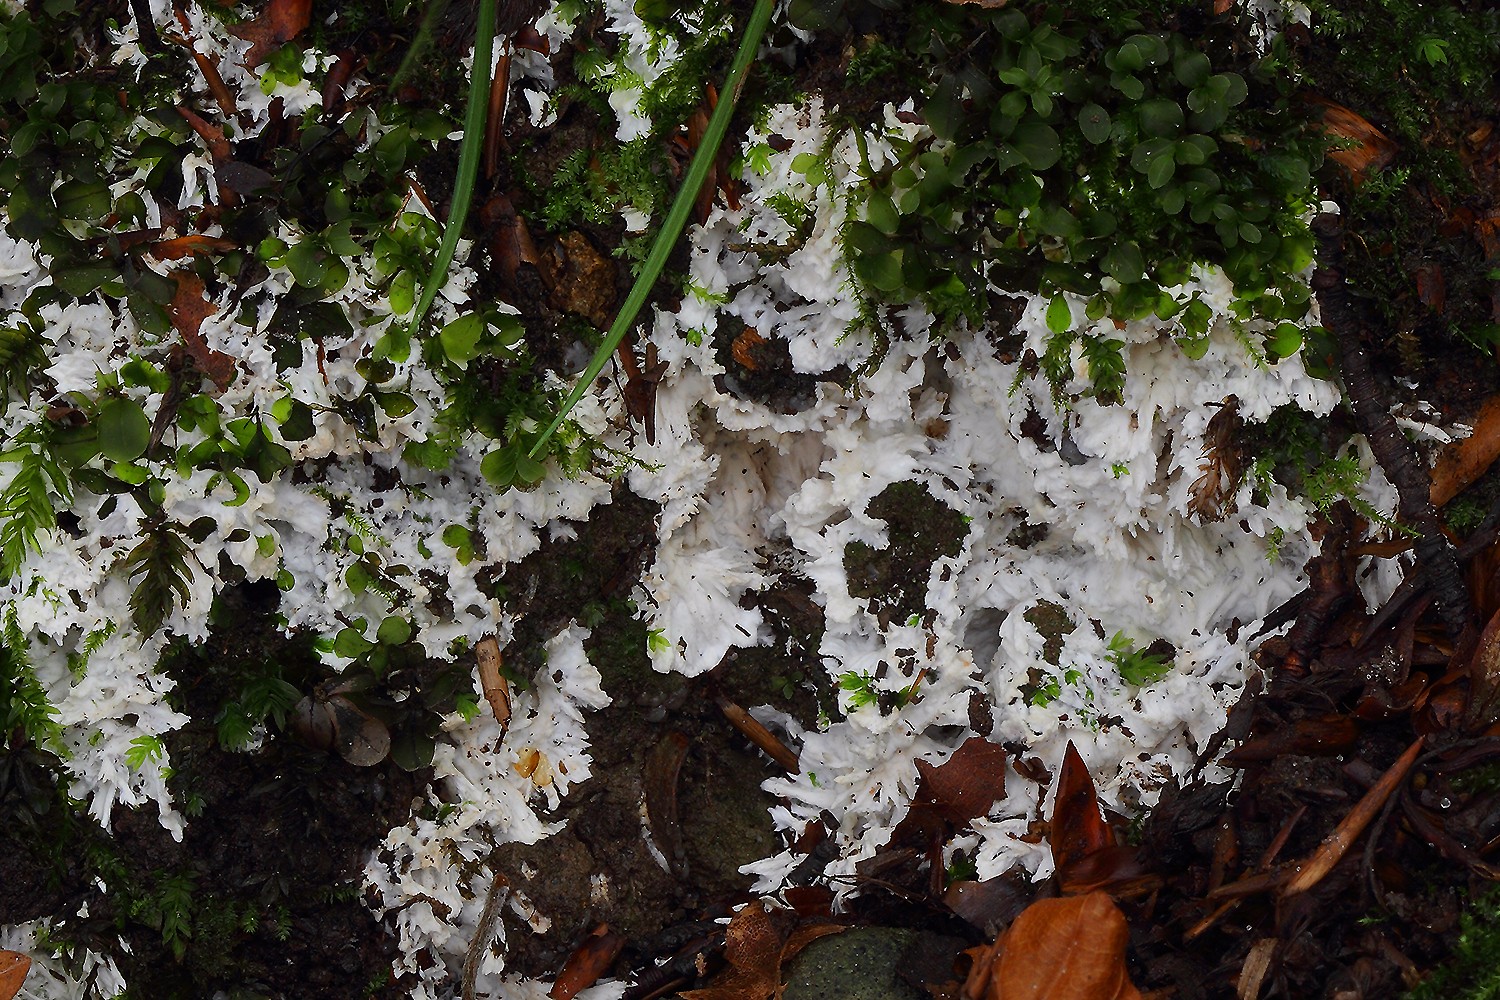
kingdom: Fungi
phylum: Basidiomycota
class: Agaricomycetes
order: Trechisporales
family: Sistotremataceae
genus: Trechispora
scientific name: Trechispora fastidiosa
